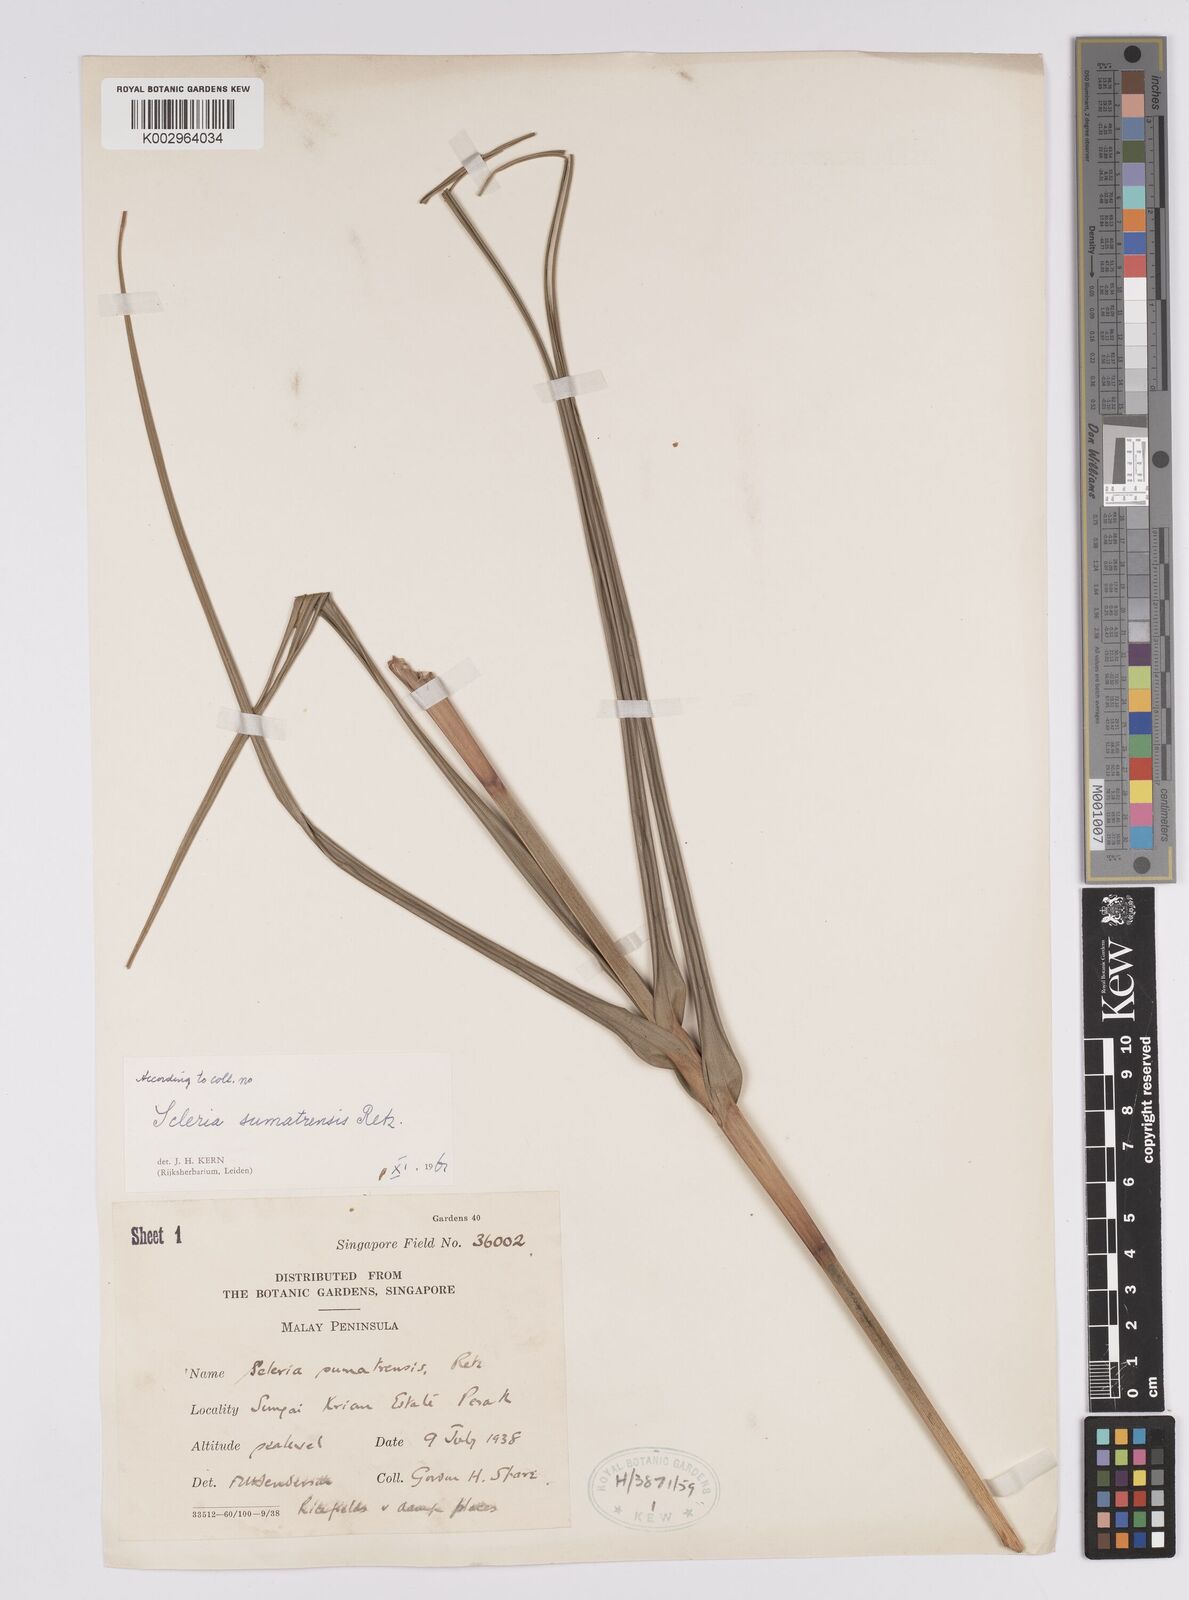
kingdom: Plantae
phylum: Tracheophyta
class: Liliopsida
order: Poales
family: Cyperaceae
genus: Scleria
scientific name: Scleria sumatrensis
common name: Sumatran scleria
